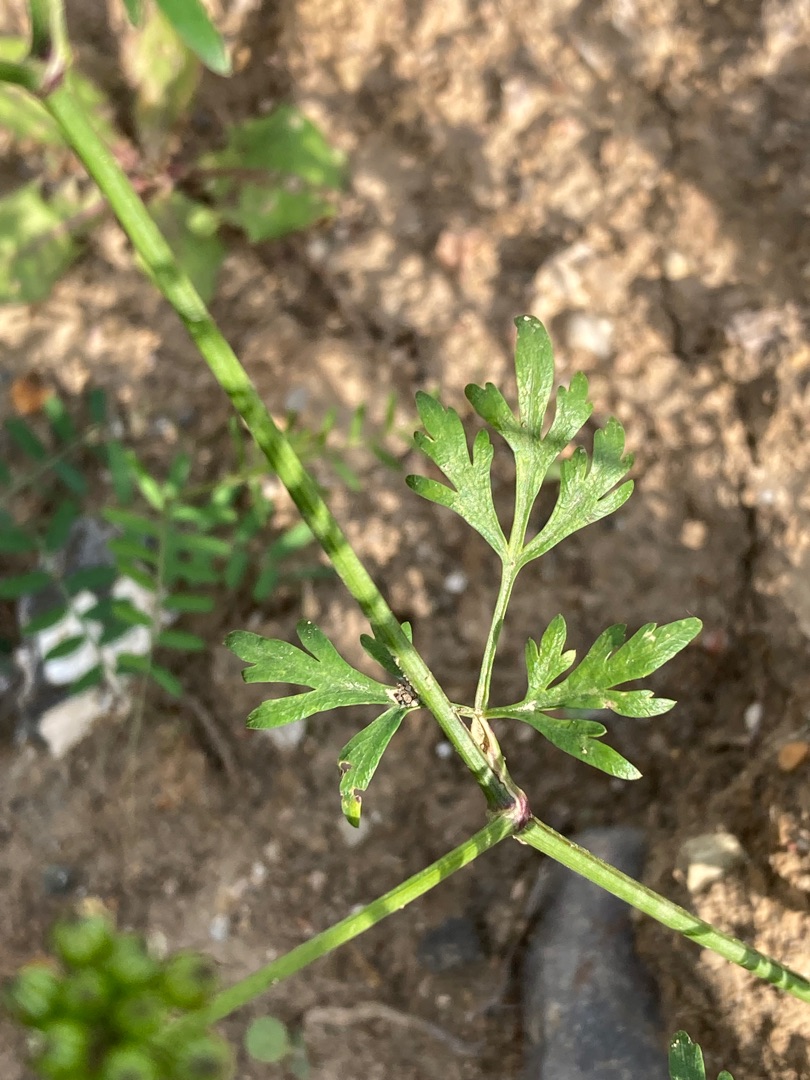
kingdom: Plantae
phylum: Tracheophyta
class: Magnoliopsida
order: Apiales
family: Apiaceae
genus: Aethusa
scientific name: Aethusa cynapium
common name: Hundepersille
